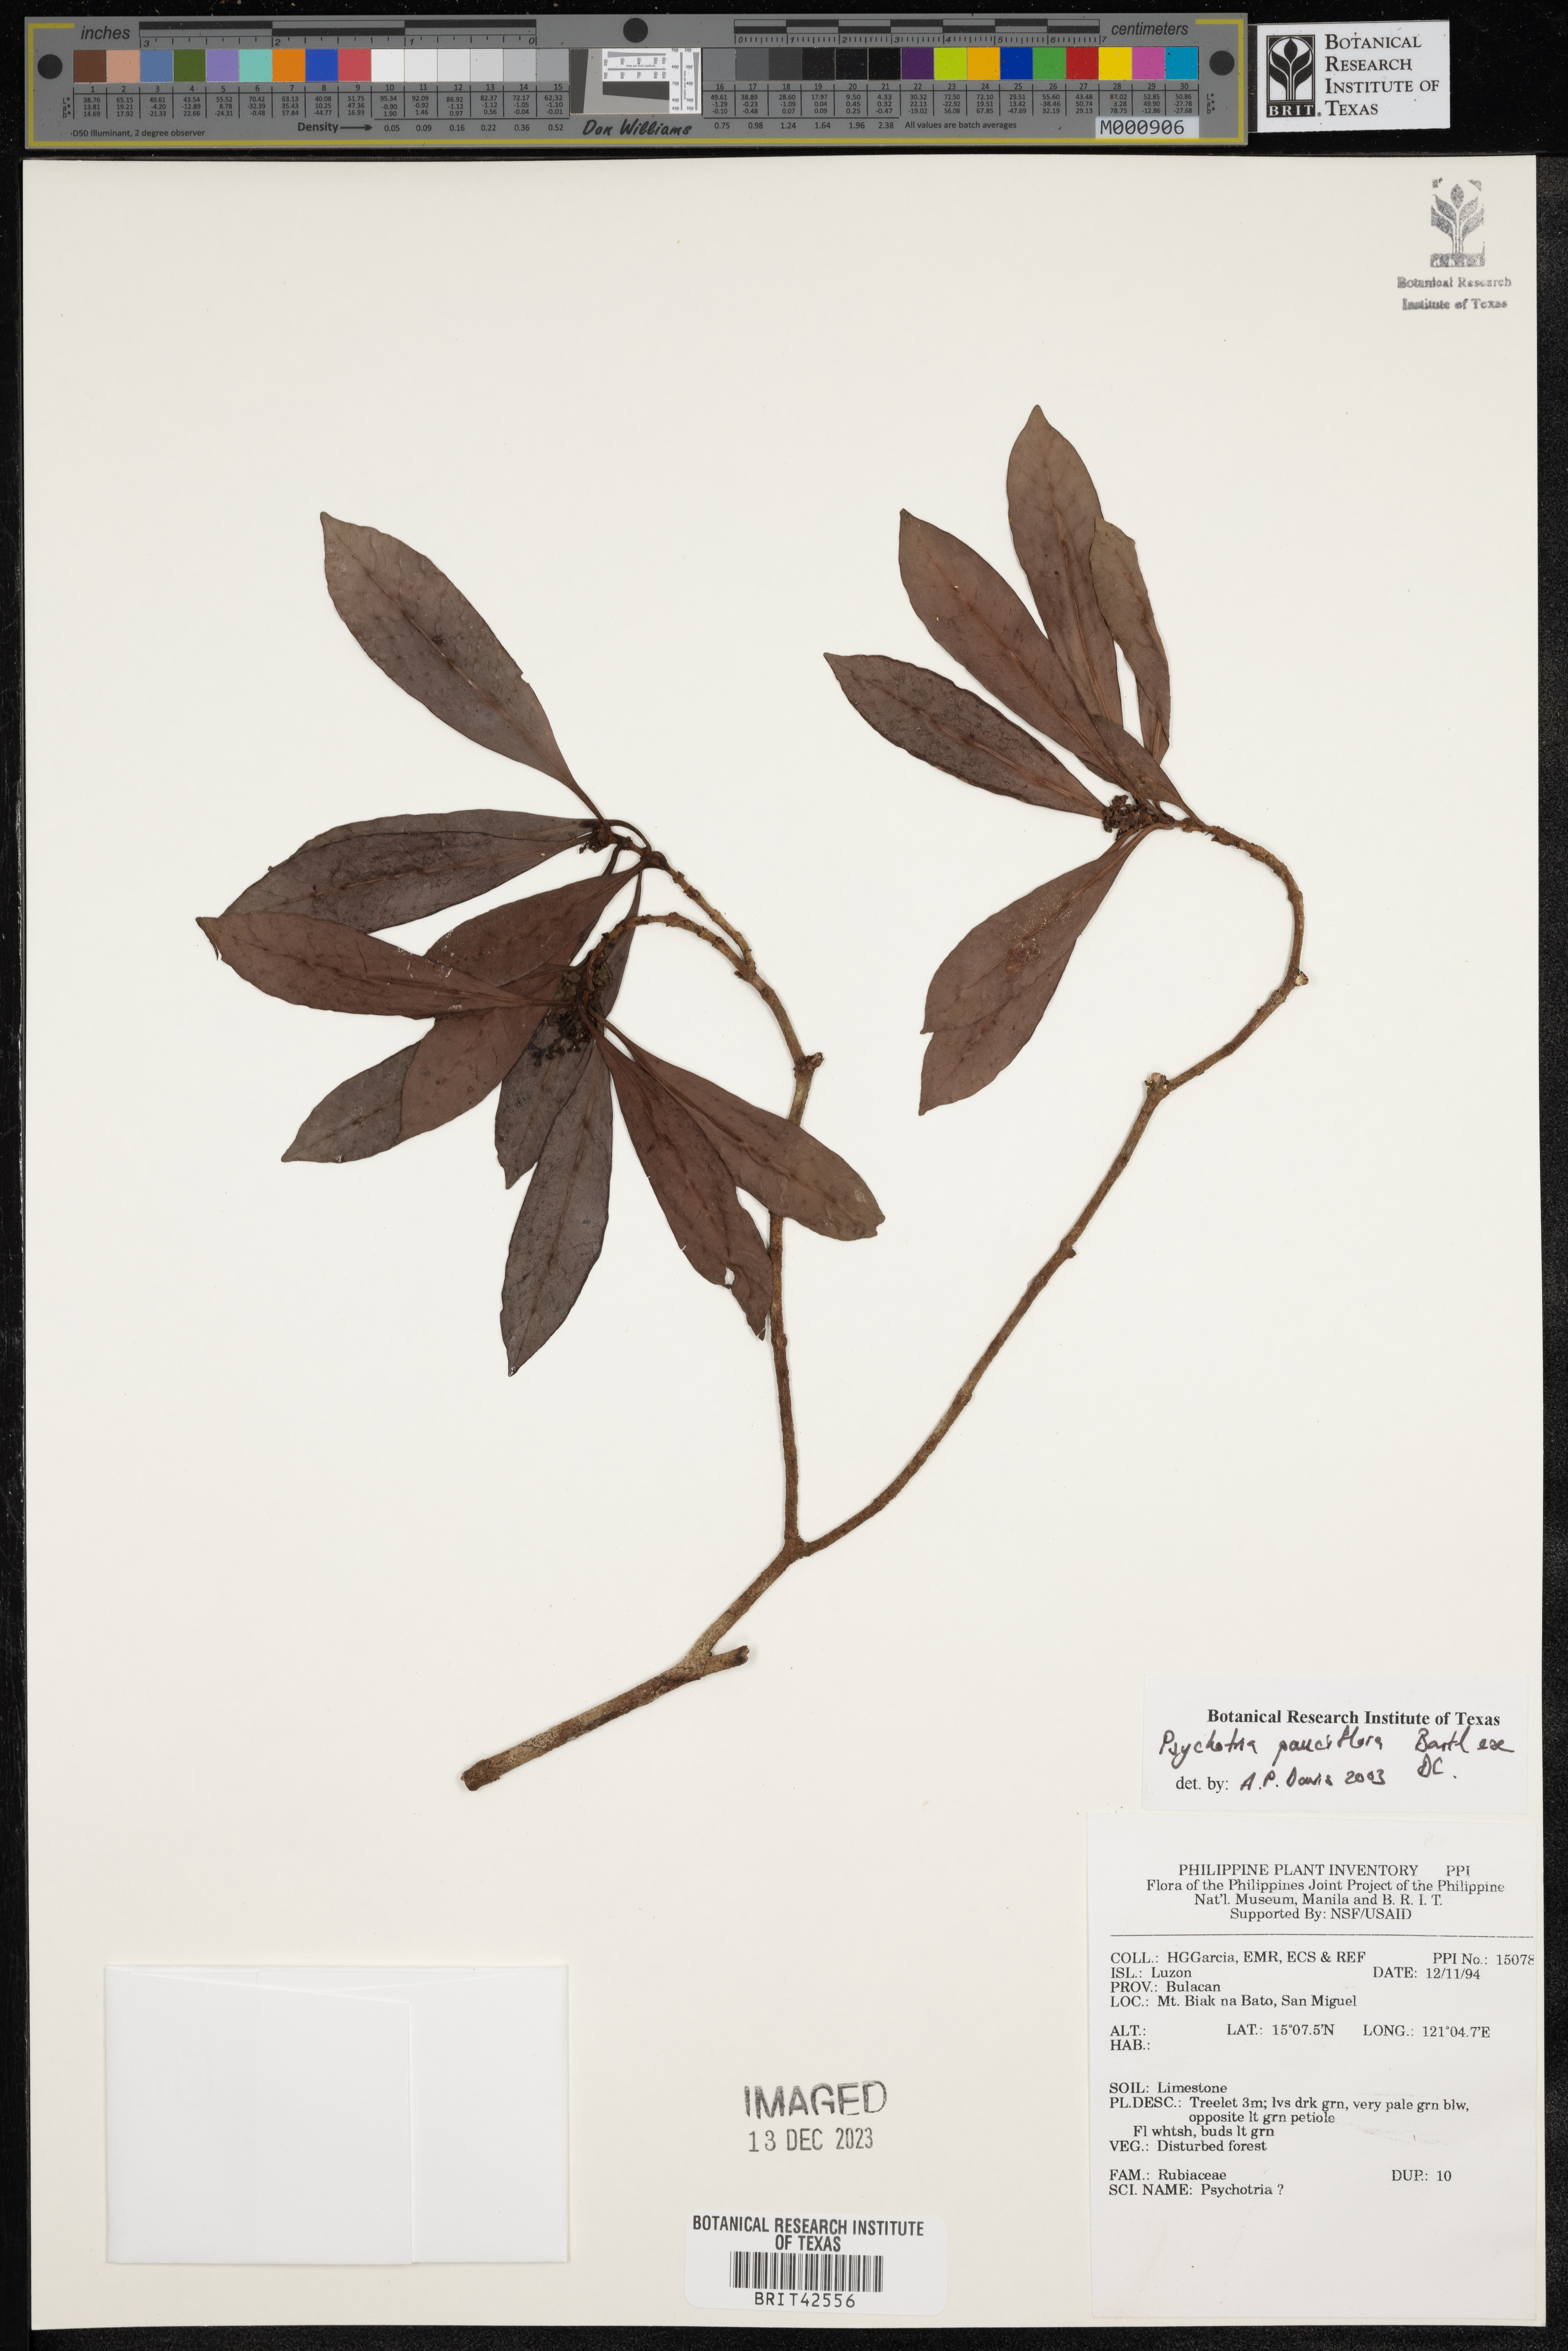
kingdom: Plantae
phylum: Tracheophyta
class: Magnoliopsida
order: Gentianales
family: Rubiaceae
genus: Psychotria
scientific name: Psychotria subobliqua
